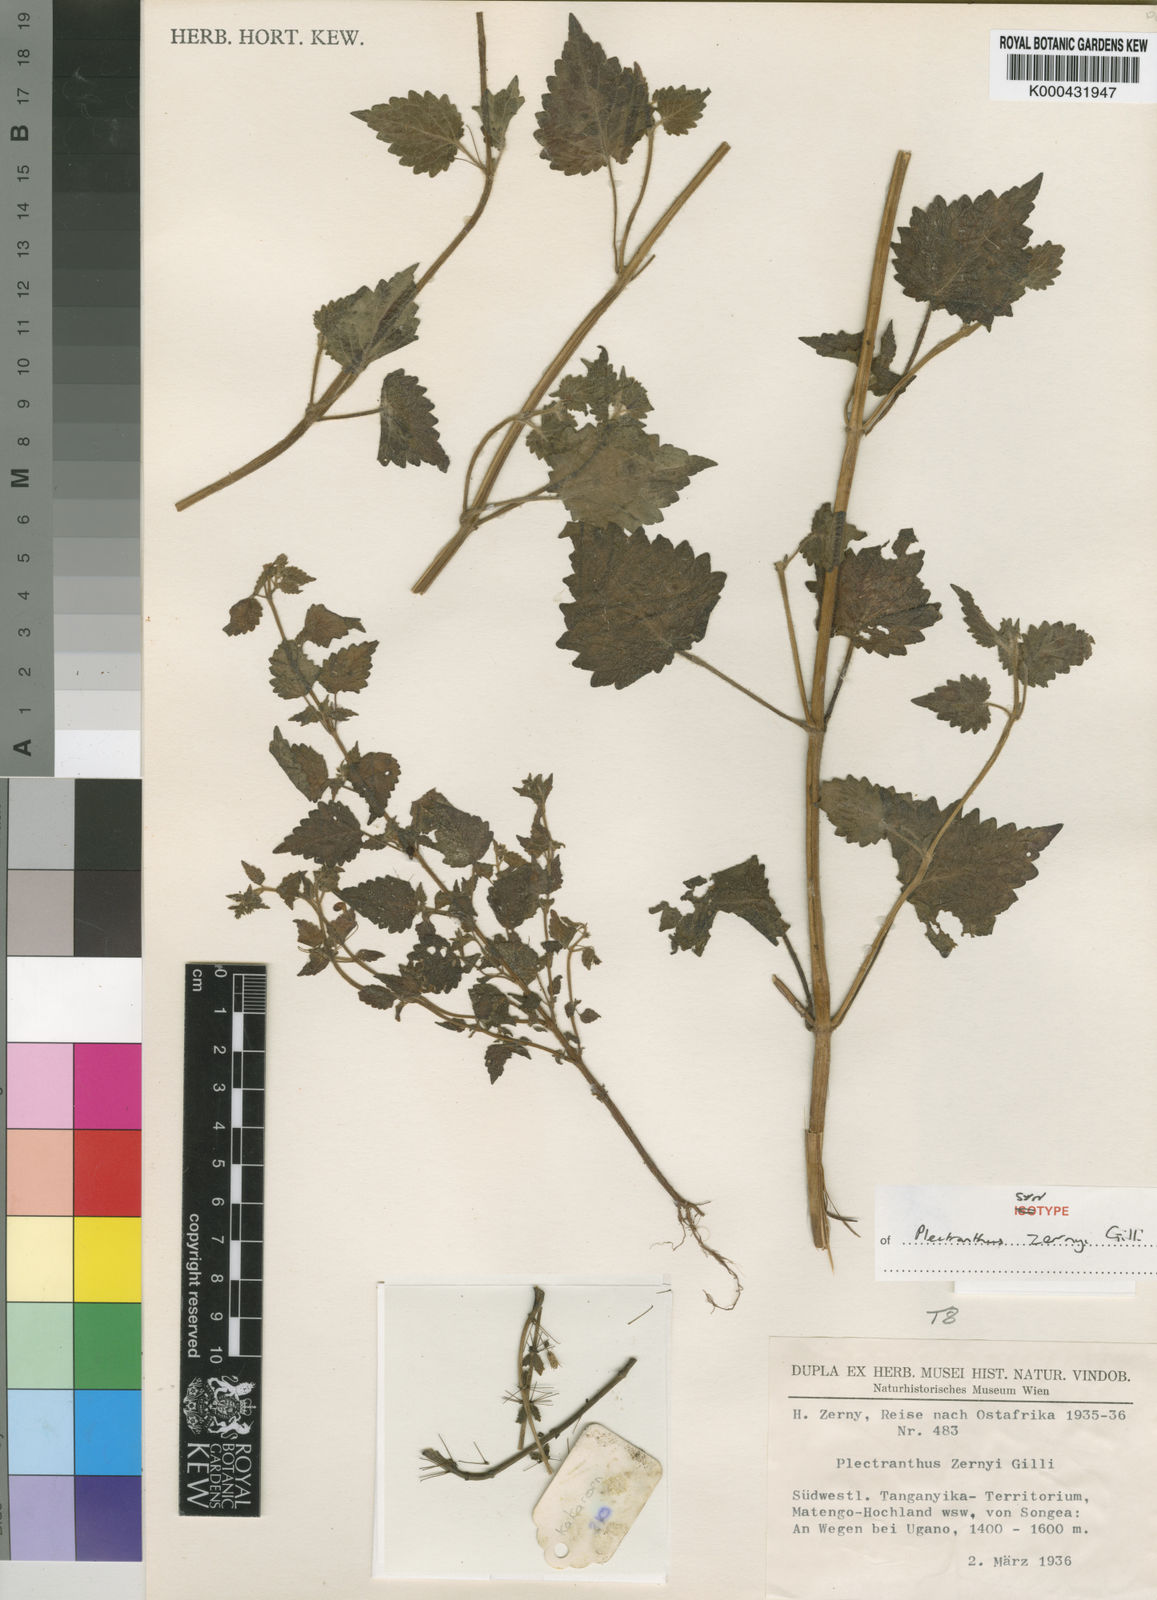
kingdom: Plantae
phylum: Tracheophyta
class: Magnoliopsida
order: Lamiales
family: Lamiaceae
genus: Equilabium
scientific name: Equilabium gracile
